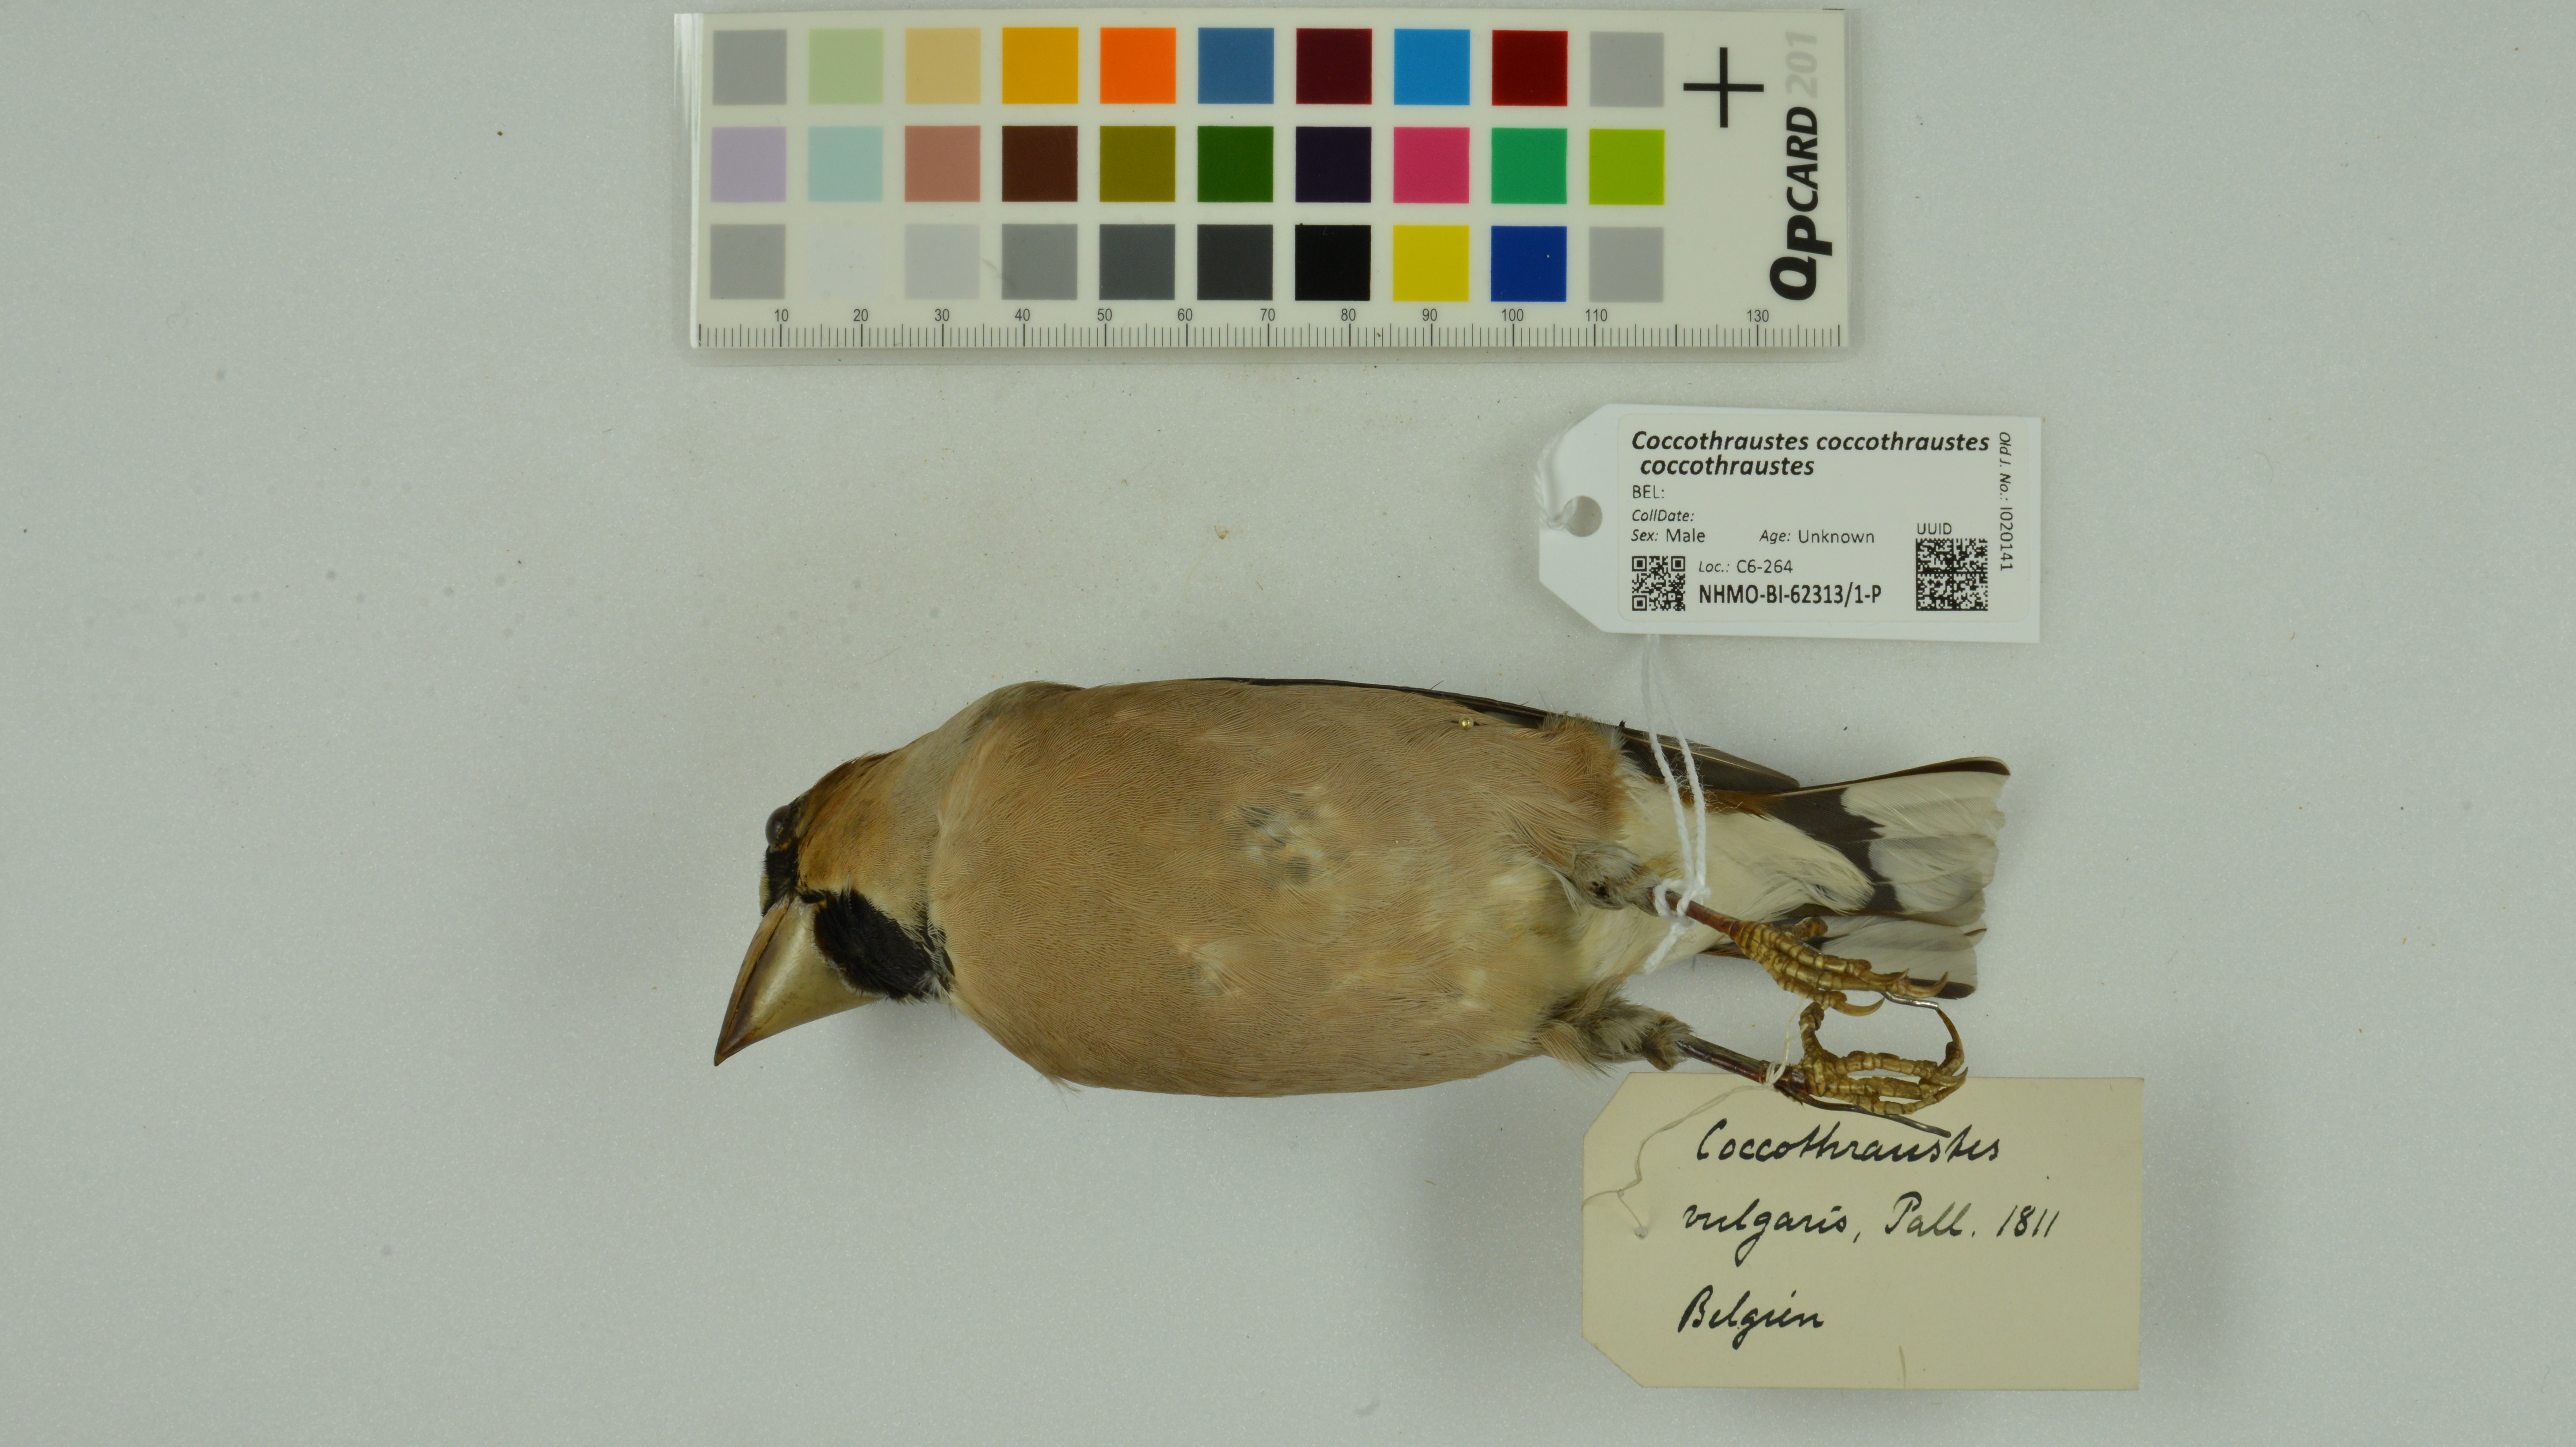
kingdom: Animalia
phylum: Chordata
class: Aves
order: Passeriformes
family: Fringillidae
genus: Coccothraustes
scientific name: Coccothraustes coccothraustes
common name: Hawfinch
